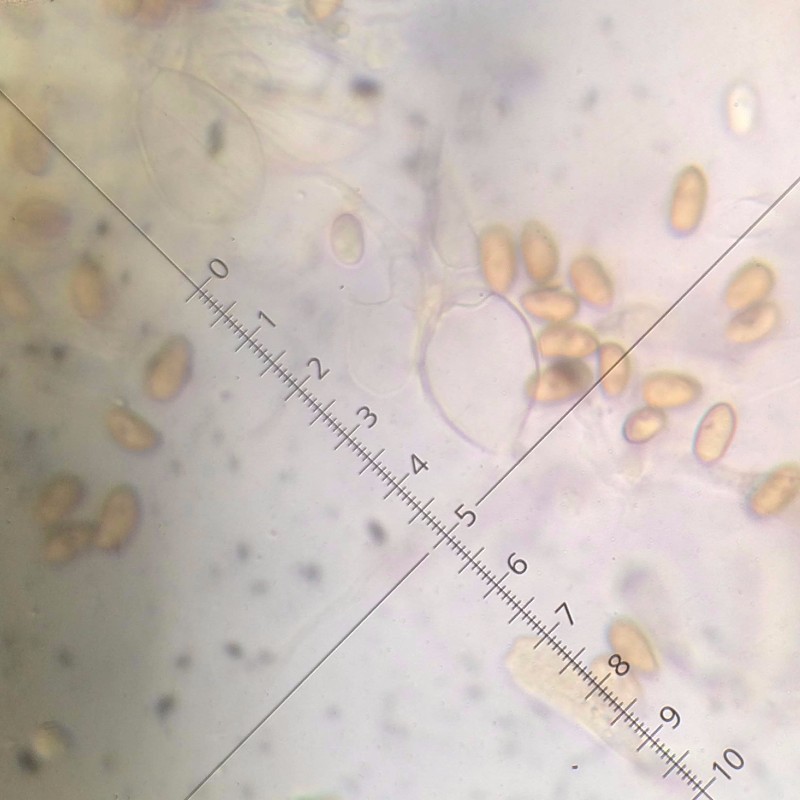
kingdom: Fungi
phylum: Basidiomycota
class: Agaricomycetes
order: Agaricales
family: Inocybaceae
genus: Mallocybe
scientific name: Mallocybe agardhii
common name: Agardhs trævlhat
